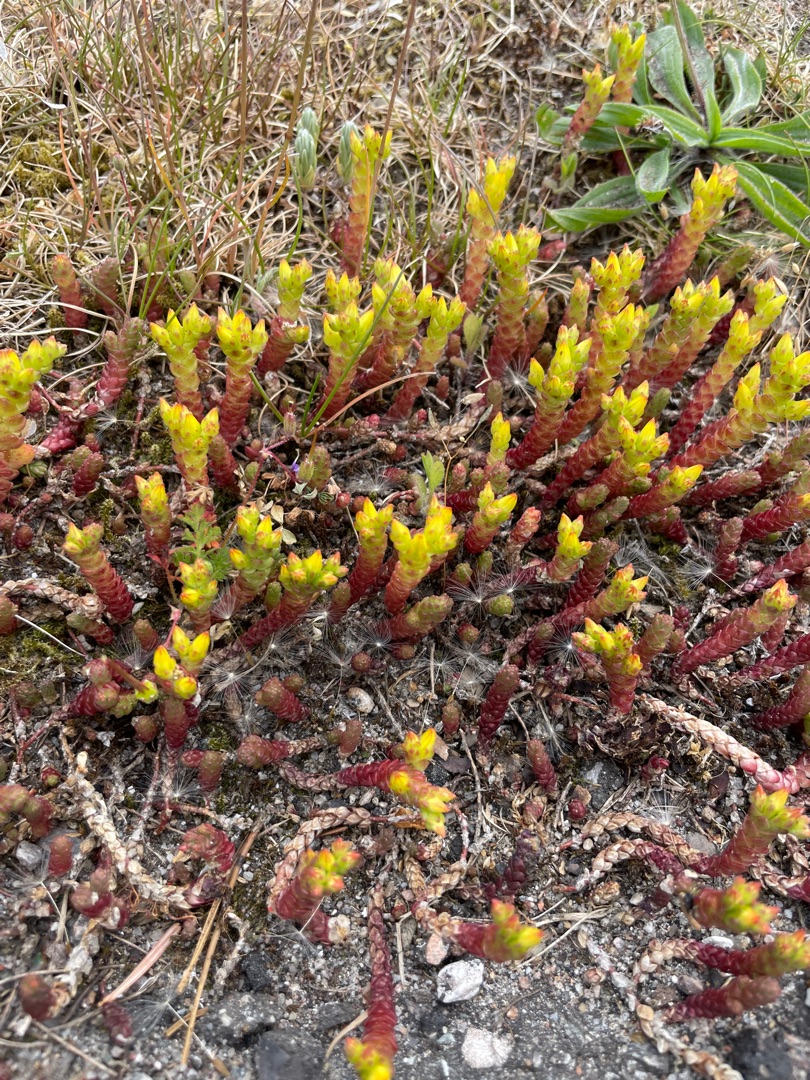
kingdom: Plantae
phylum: Tracheophyta
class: Magnoliopsida
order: Saxifragales
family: Crassulaceae
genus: Sedum
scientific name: Sedum acre
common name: Bidende stenurt
